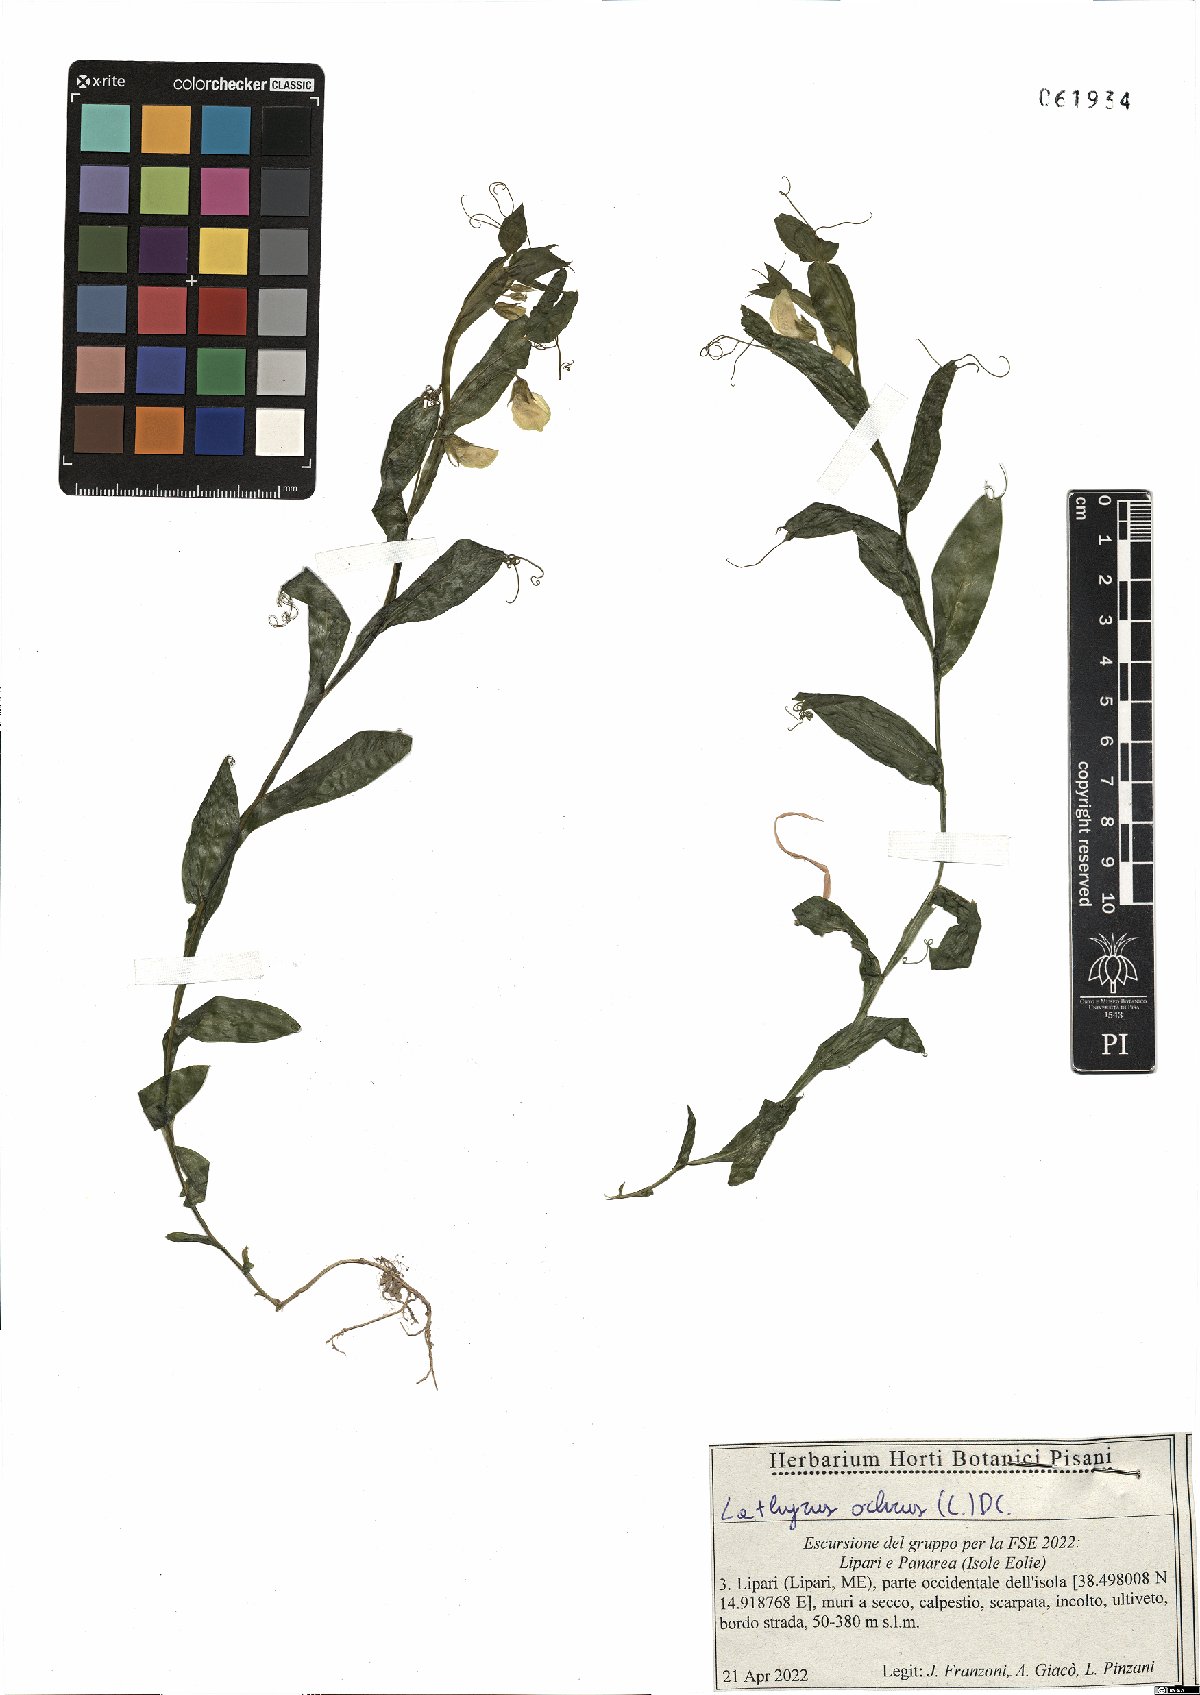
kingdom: Plantae
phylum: Tracheophyta
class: Magnoliopsida
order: Fabales
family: Fabaceae
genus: Lathyrus
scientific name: Lathyrus ochrus
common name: Winged vetchling
